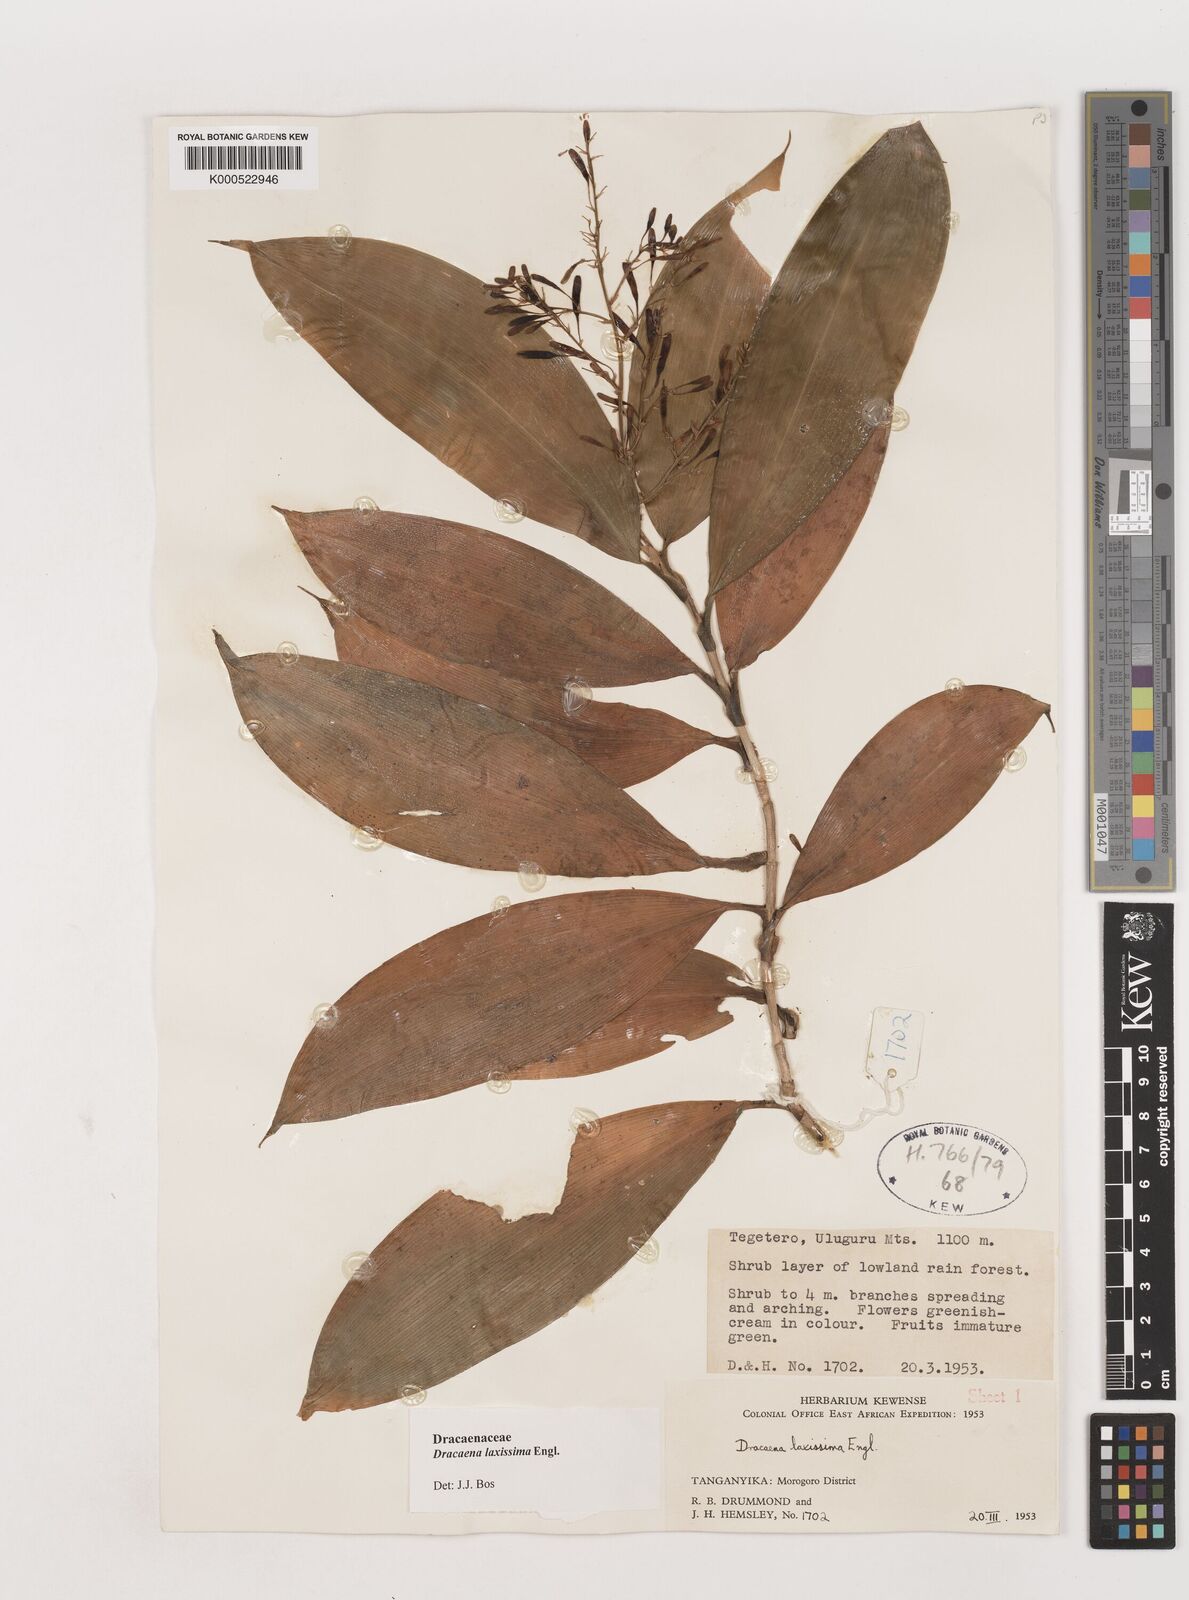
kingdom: Plantae
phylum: Tracheophyta
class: Liliopsida
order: Asparagales
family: Asparagaceae
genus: Dracaena
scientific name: Dracaena laxissima
